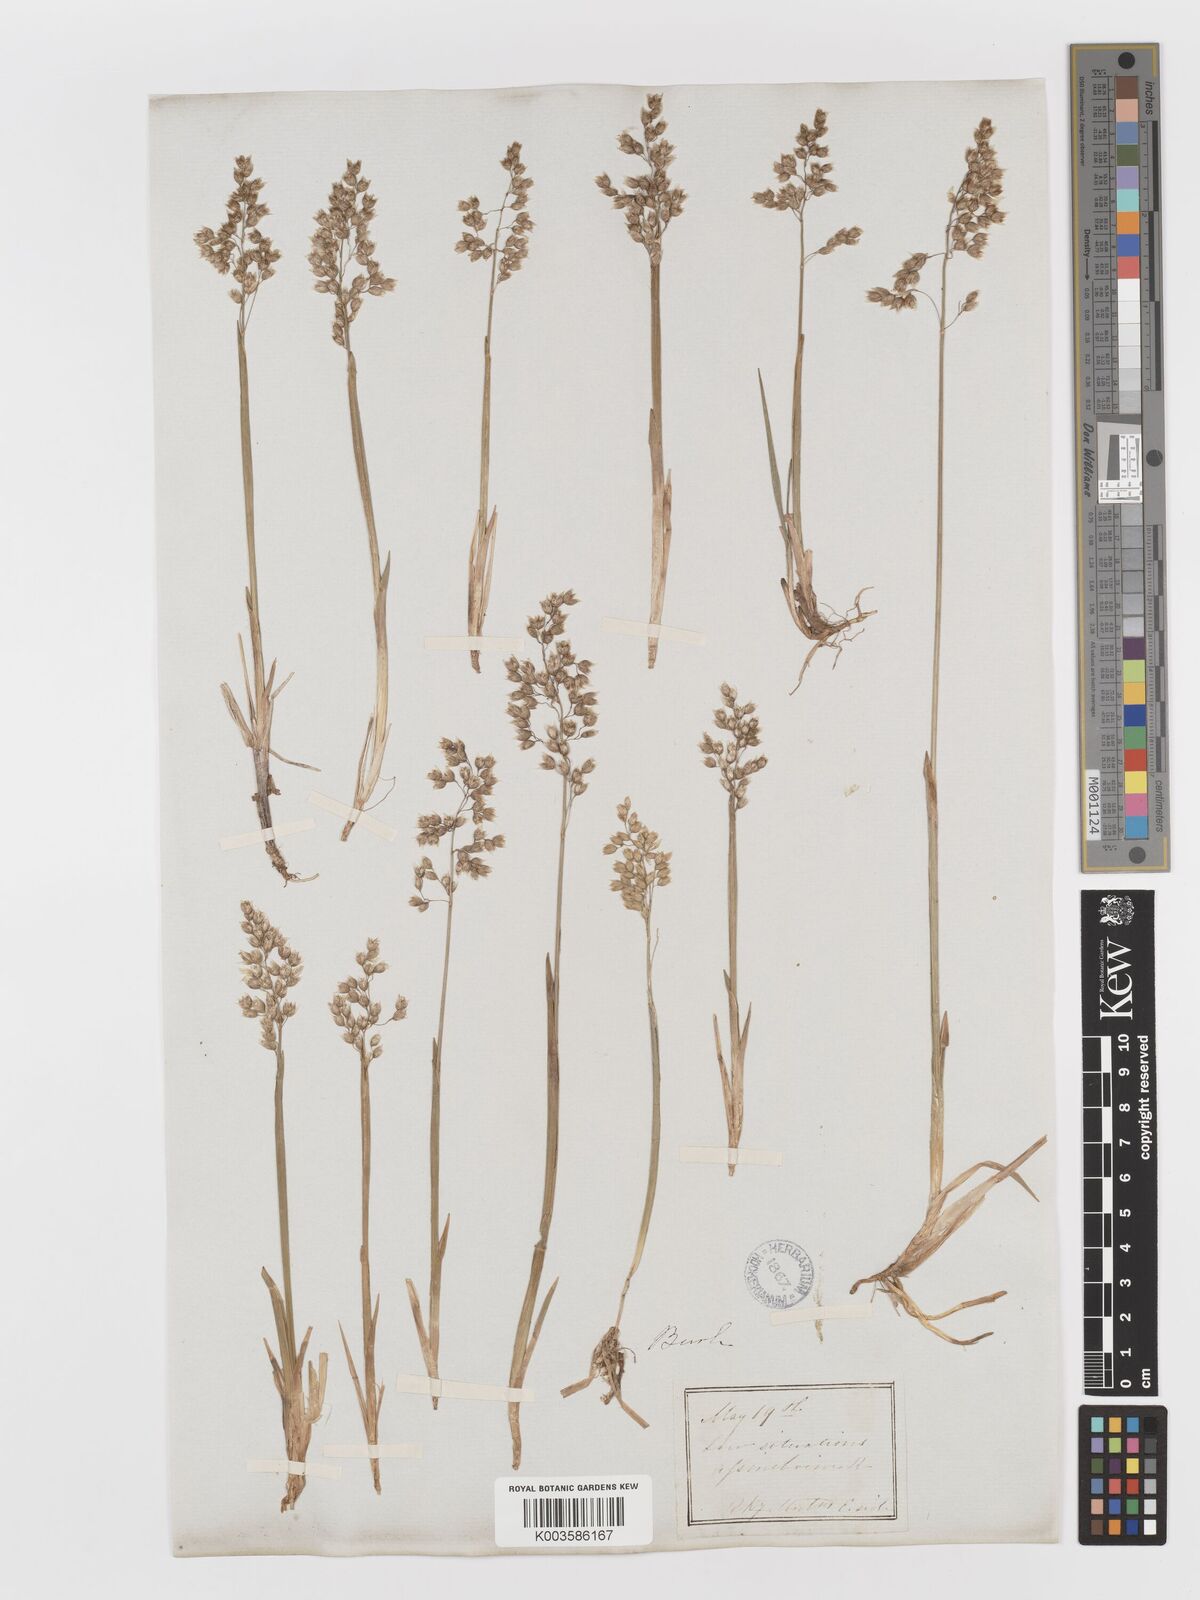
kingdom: Plantae
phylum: Tracheophyta
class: Liliopsida
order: Poales
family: Poaceae
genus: Anthoxanthum
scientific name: Anthoxanthum nitens
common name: Holy grass
